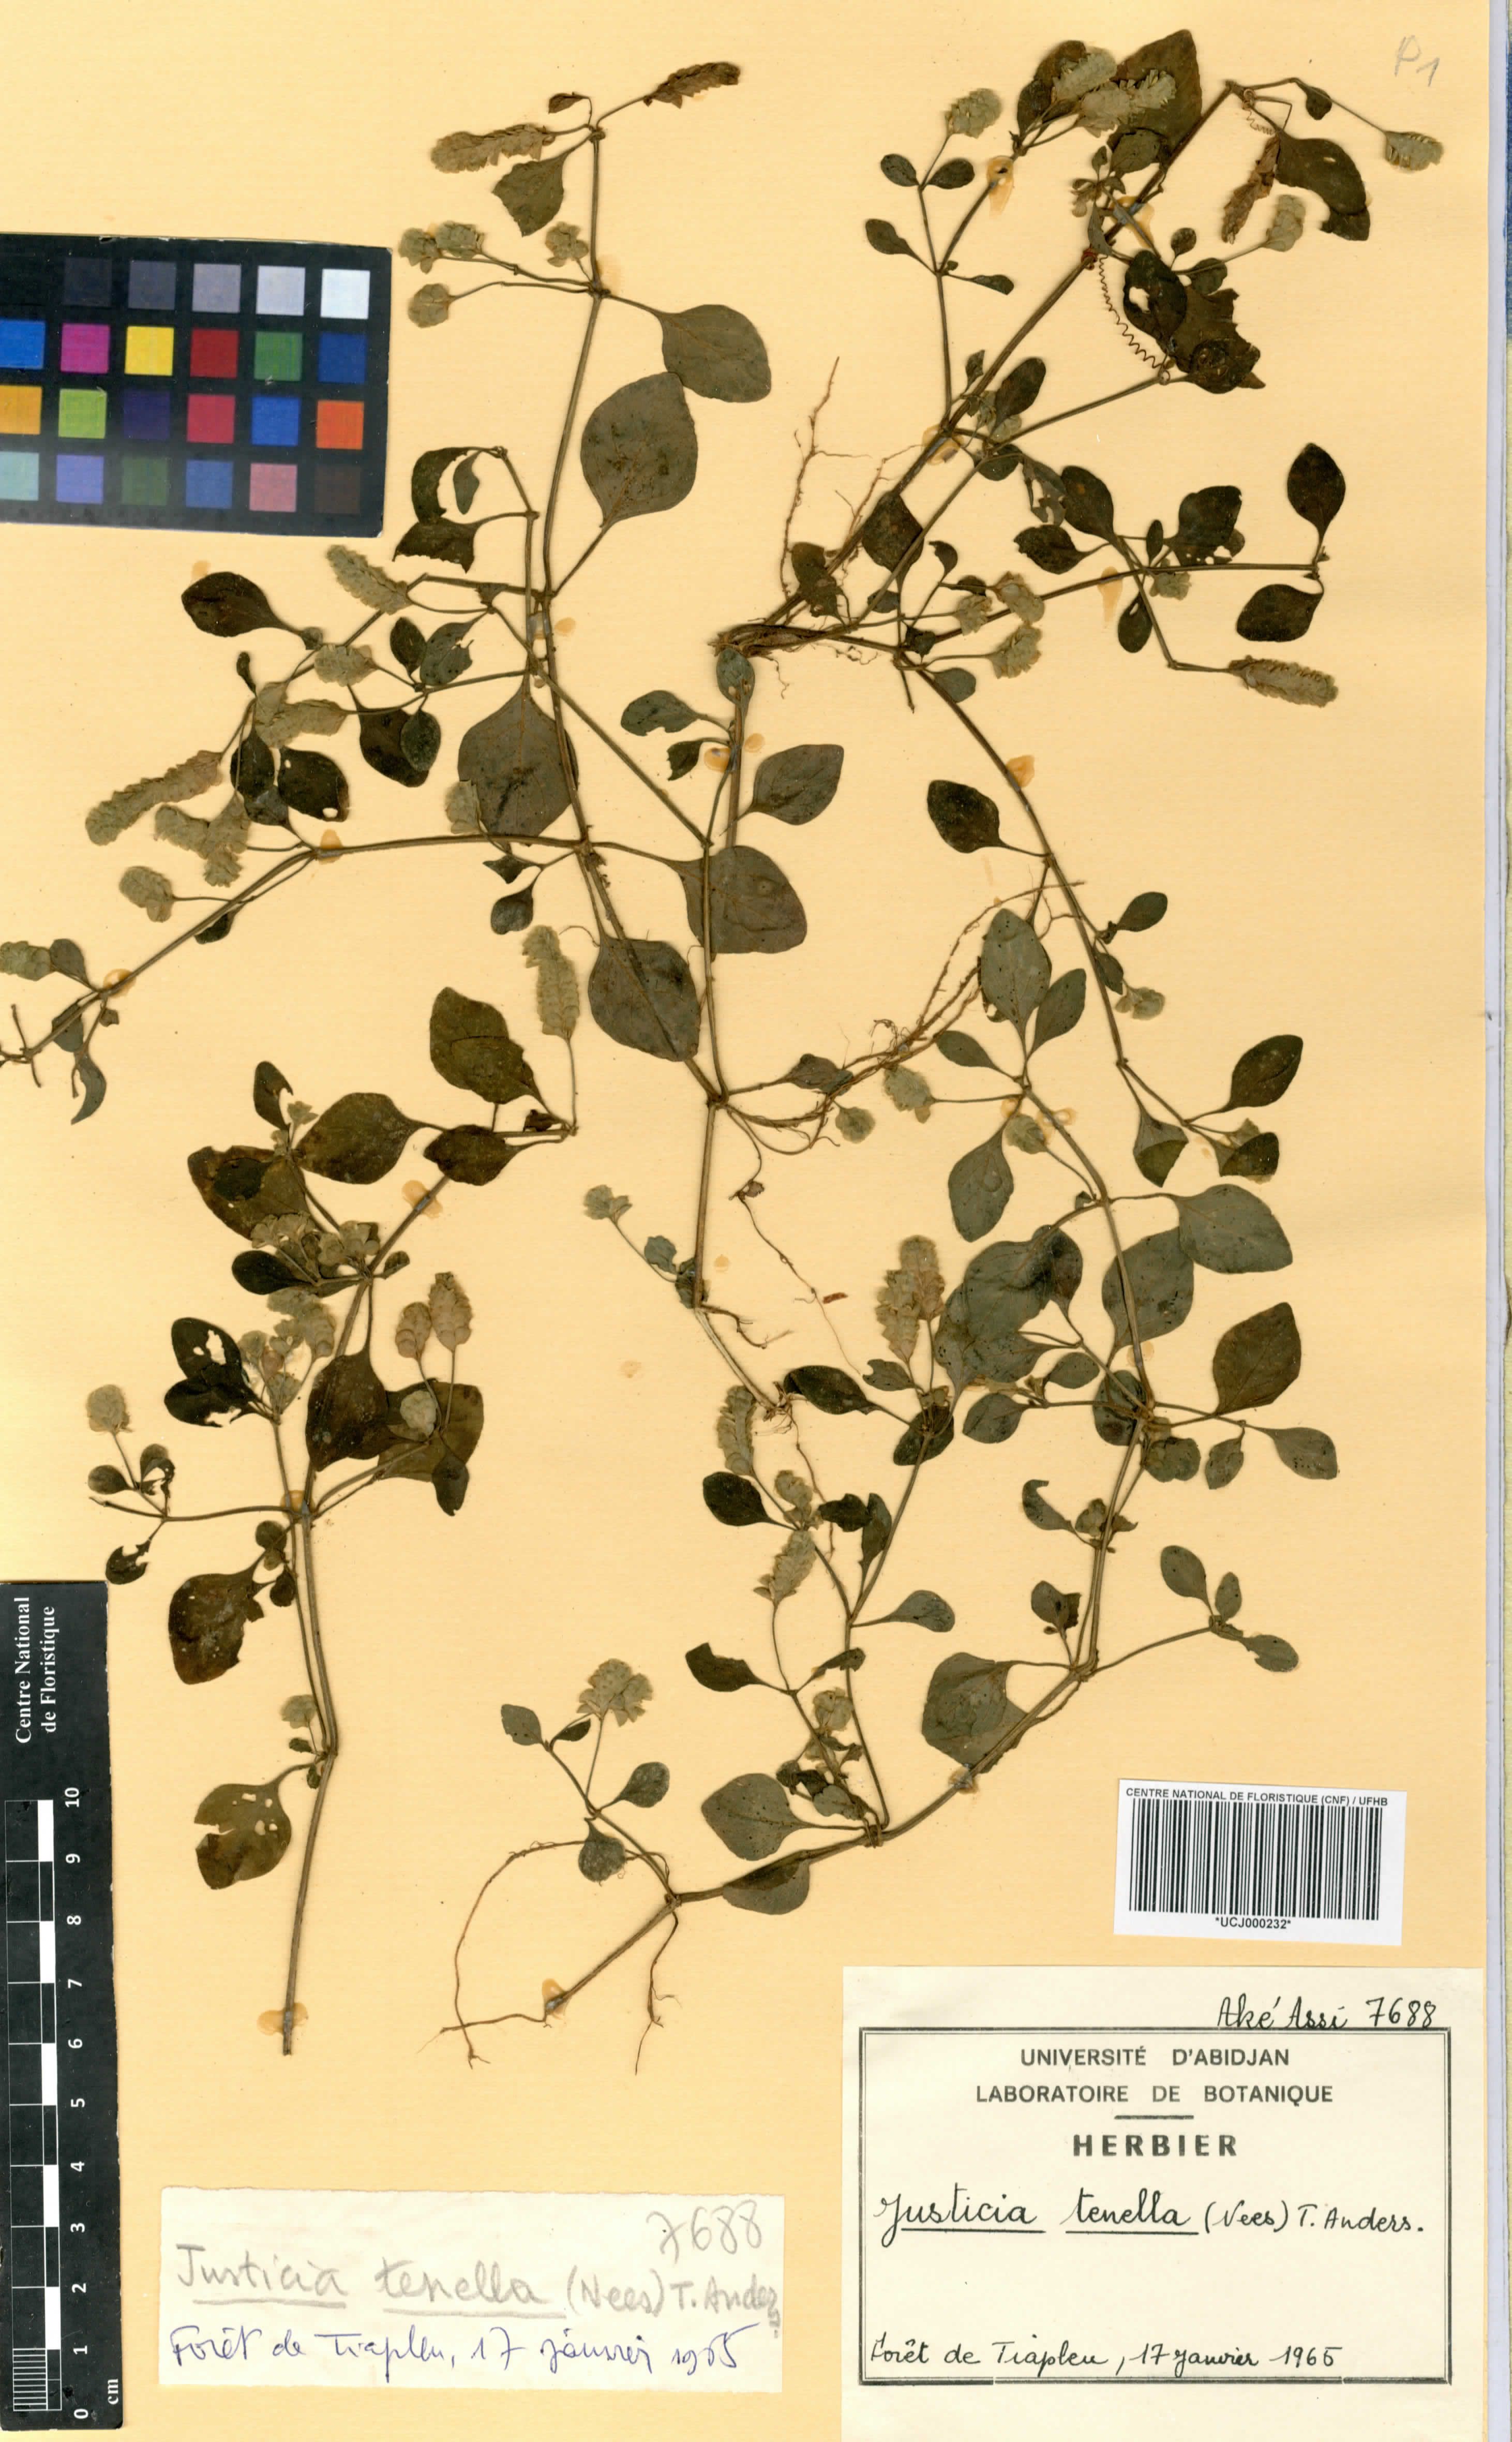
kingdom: Plantae
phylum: Tracheophyta
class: Magnoliopsida
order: Lamiales
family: Acanthaceae
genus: Anisostachya
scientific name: Anisostachya tenella
